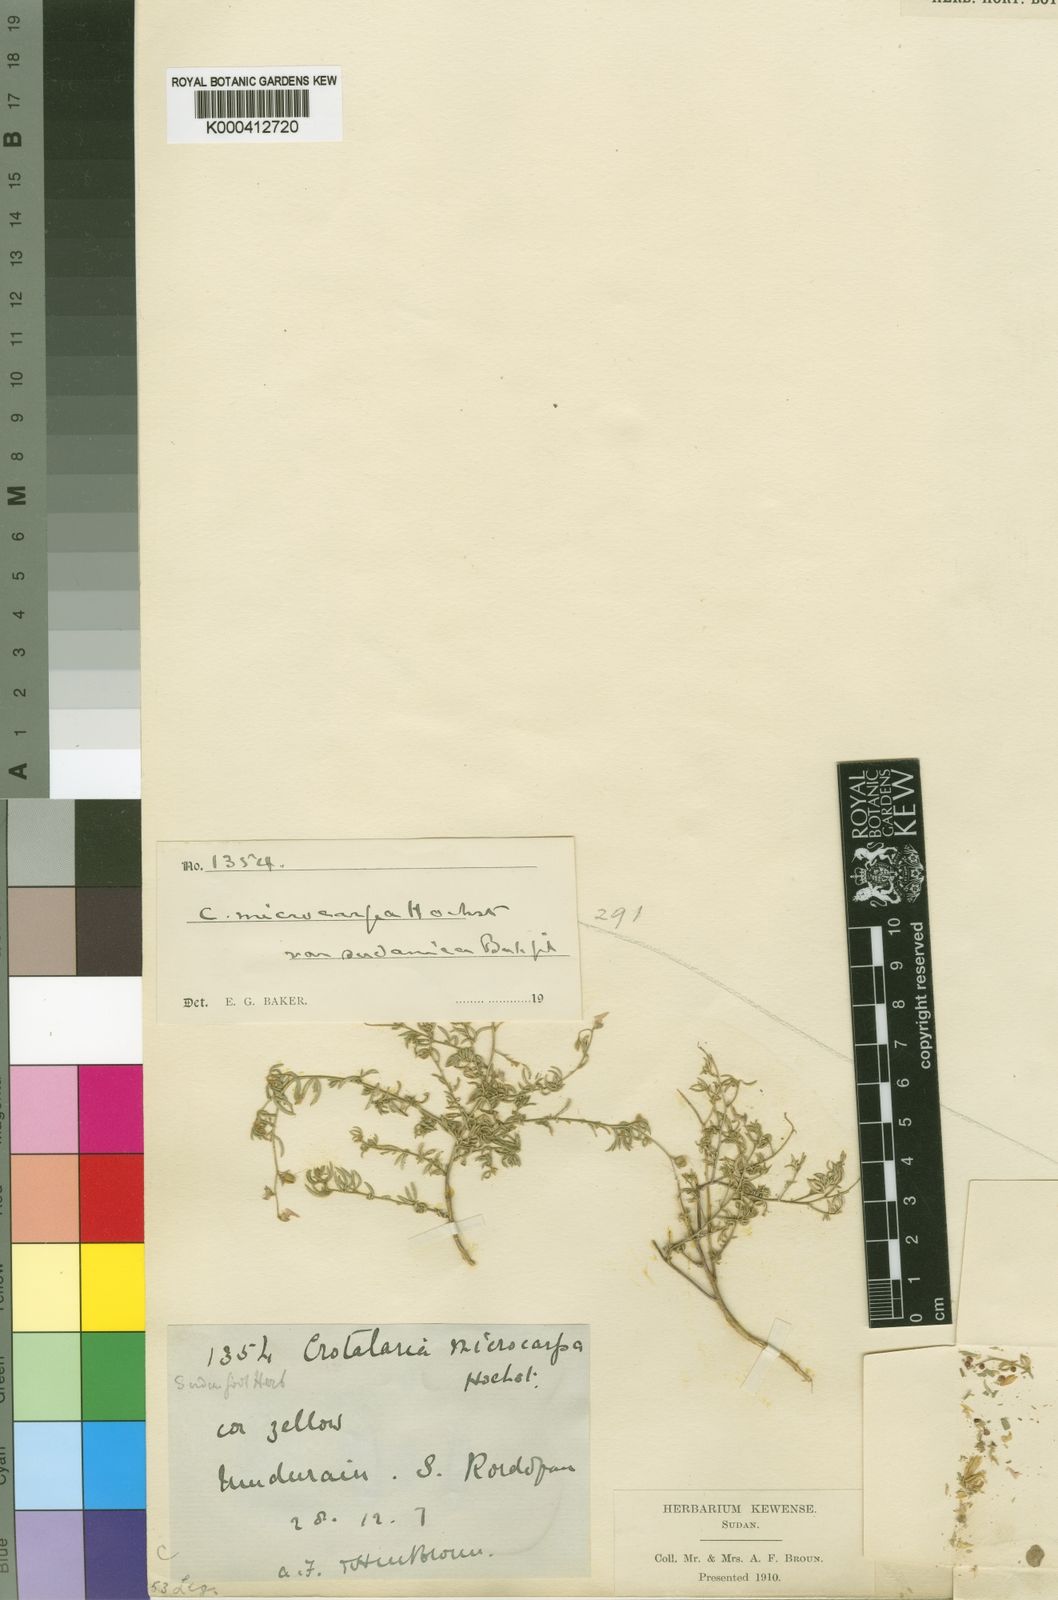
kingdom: Plantae
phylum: Tracheophyta
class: Magnoliopsida
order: Fabales
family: Fabaceae
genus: Crotalaria
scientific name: Crotalaria microcarpa
